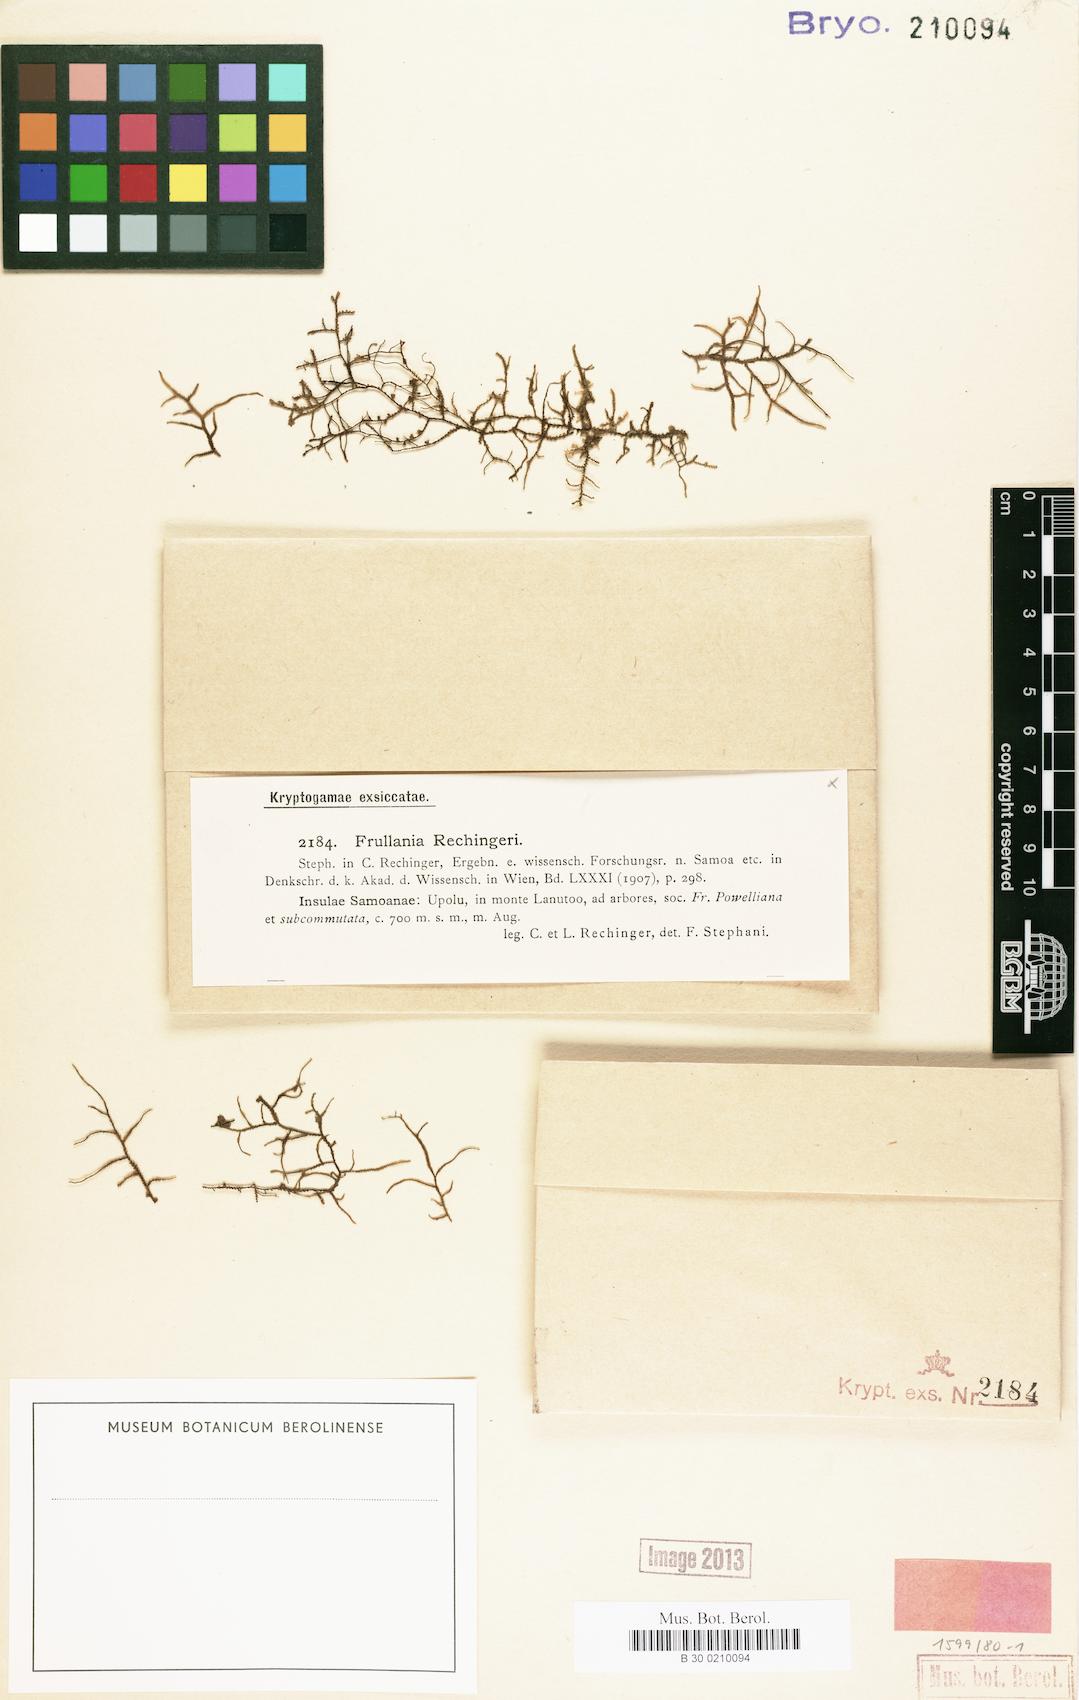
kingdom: Plantae
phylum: Marchantiophyta
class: Jungermanniopsida
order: Porellales
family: Frullaniaceae
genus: Frullania
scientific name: Frullania immersa
